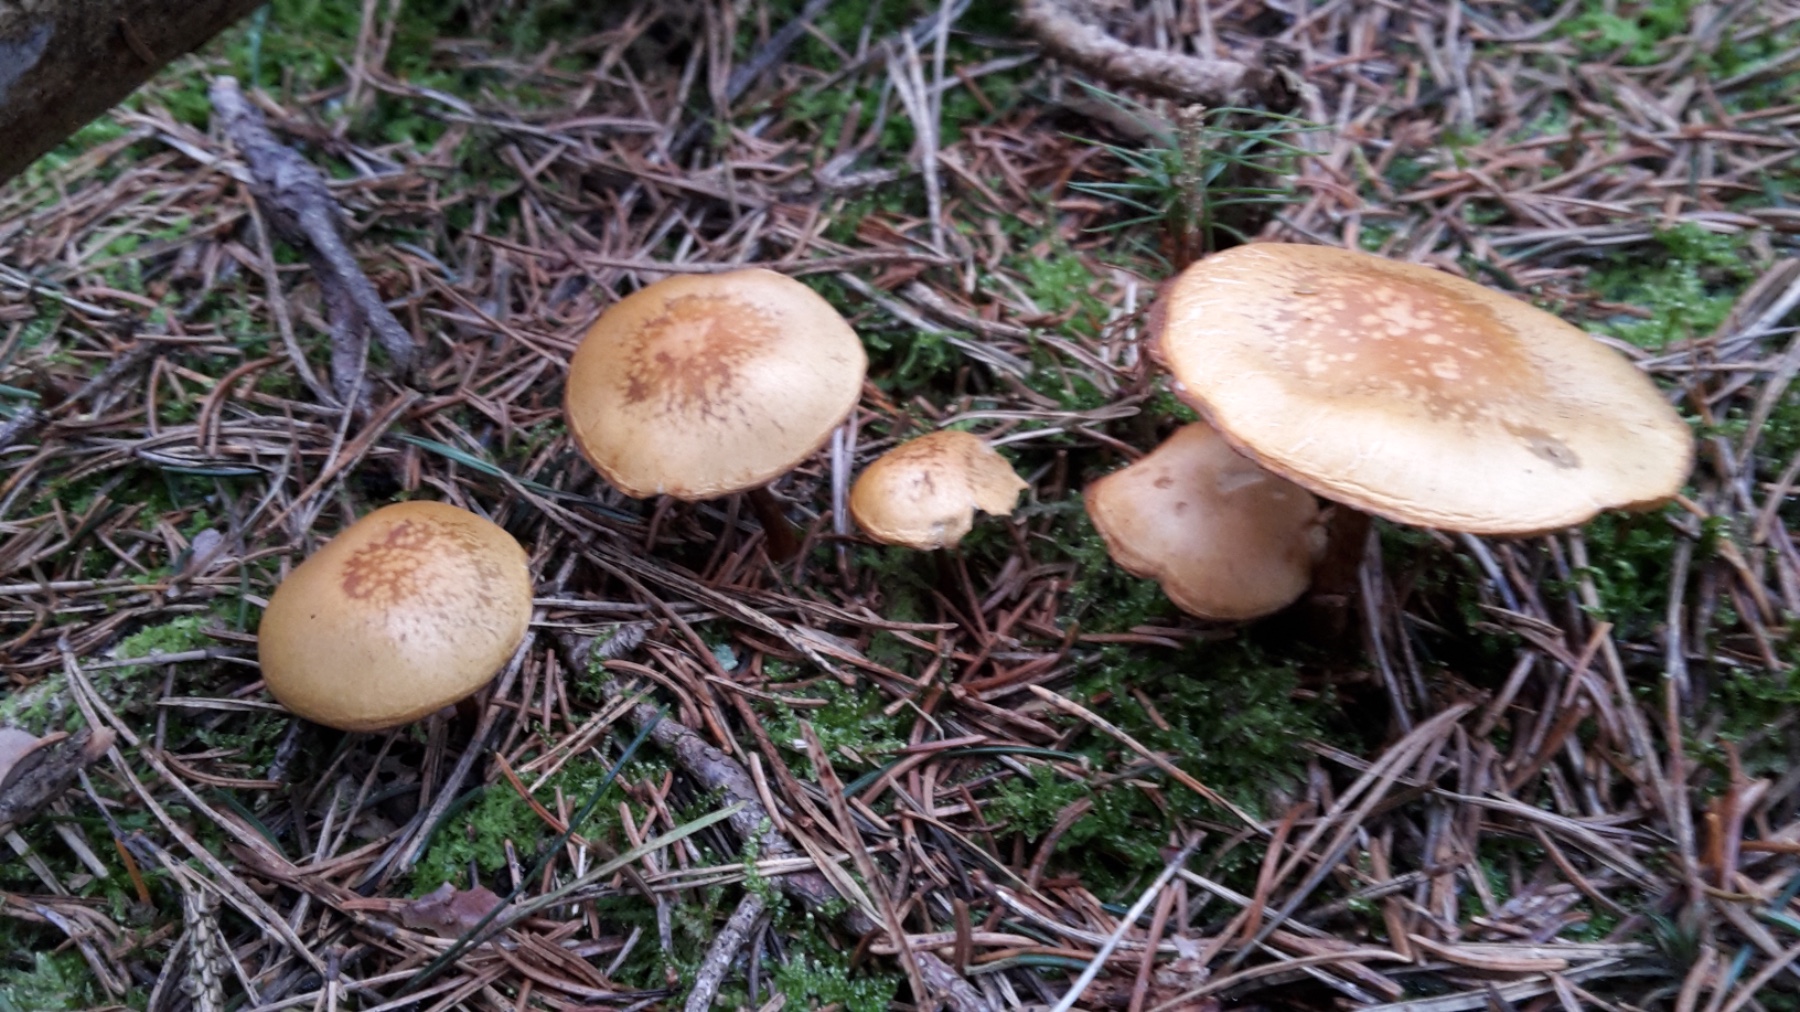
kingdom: Fungi
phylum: Basidiomycota
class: Agaricomycetes
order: Agaricales
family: Strophariaceae
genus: Hypholoma
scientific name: Hypholoma capnoides
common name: gran-svovlhat
